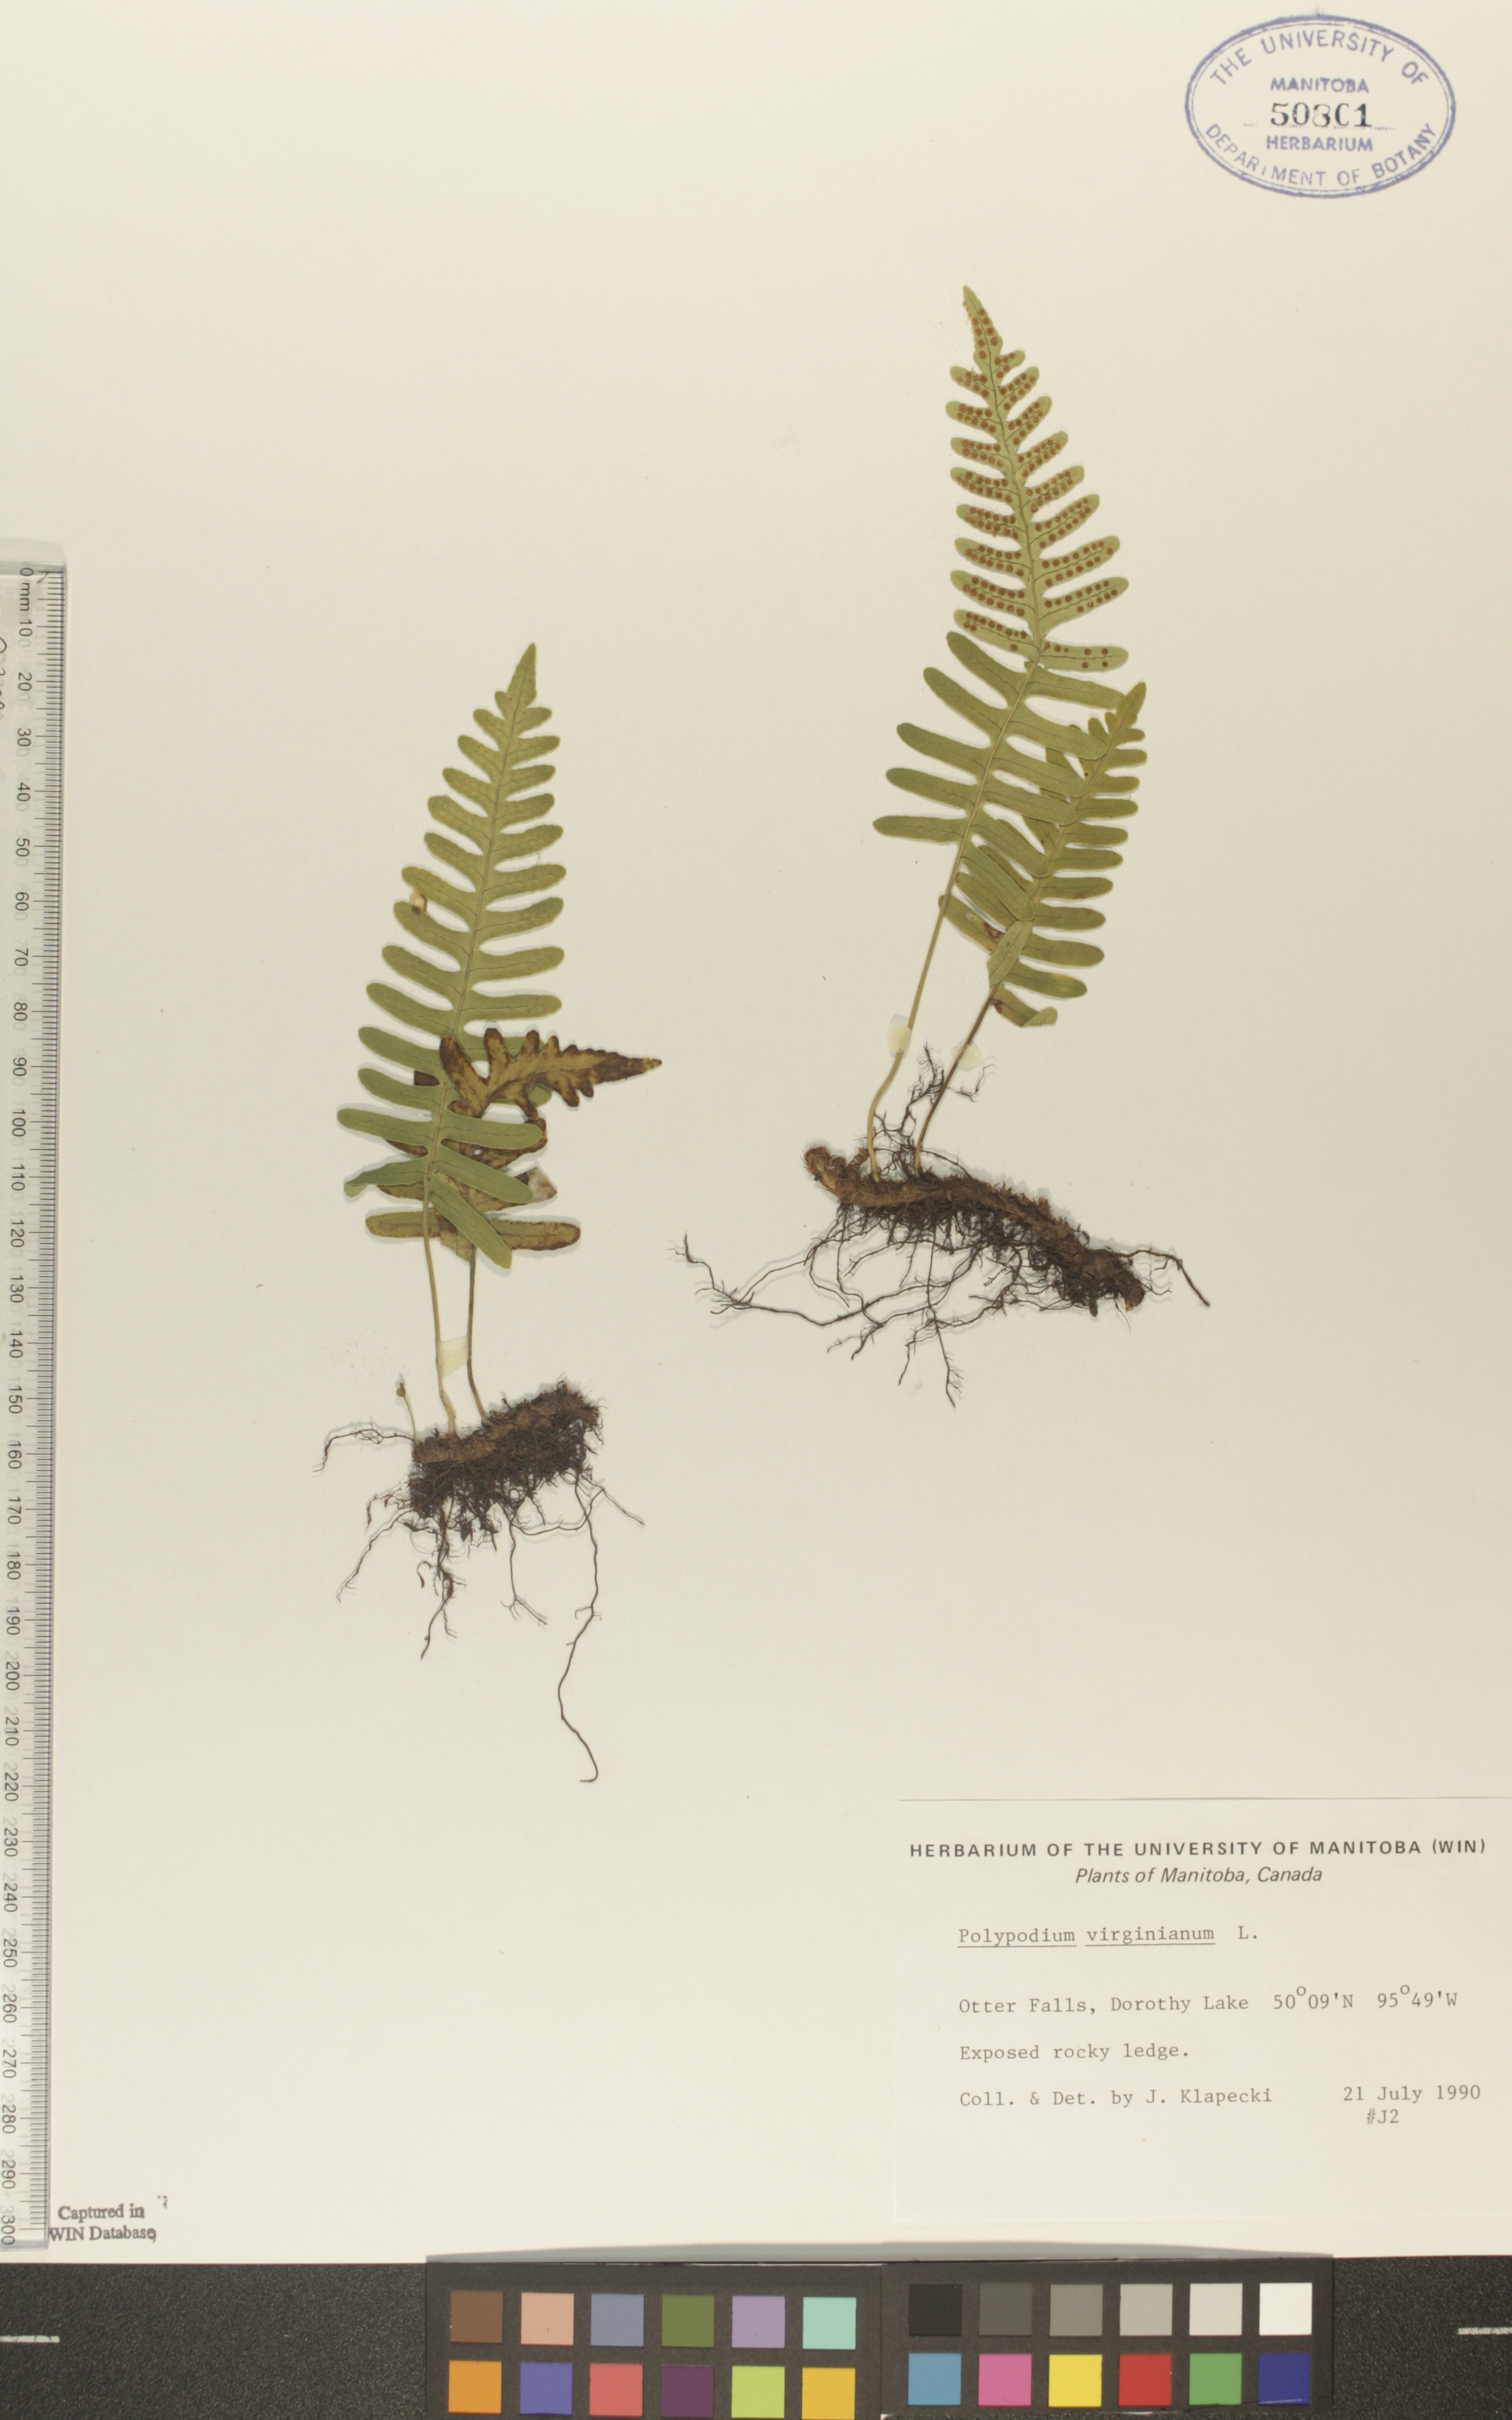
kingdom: Plantae
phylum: Tracheophyta
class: Polypodiopsida
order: Polypodiales
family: Polypodiaceae
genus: Polypodium
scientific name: Polypodium virginianum
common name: American wall fern
